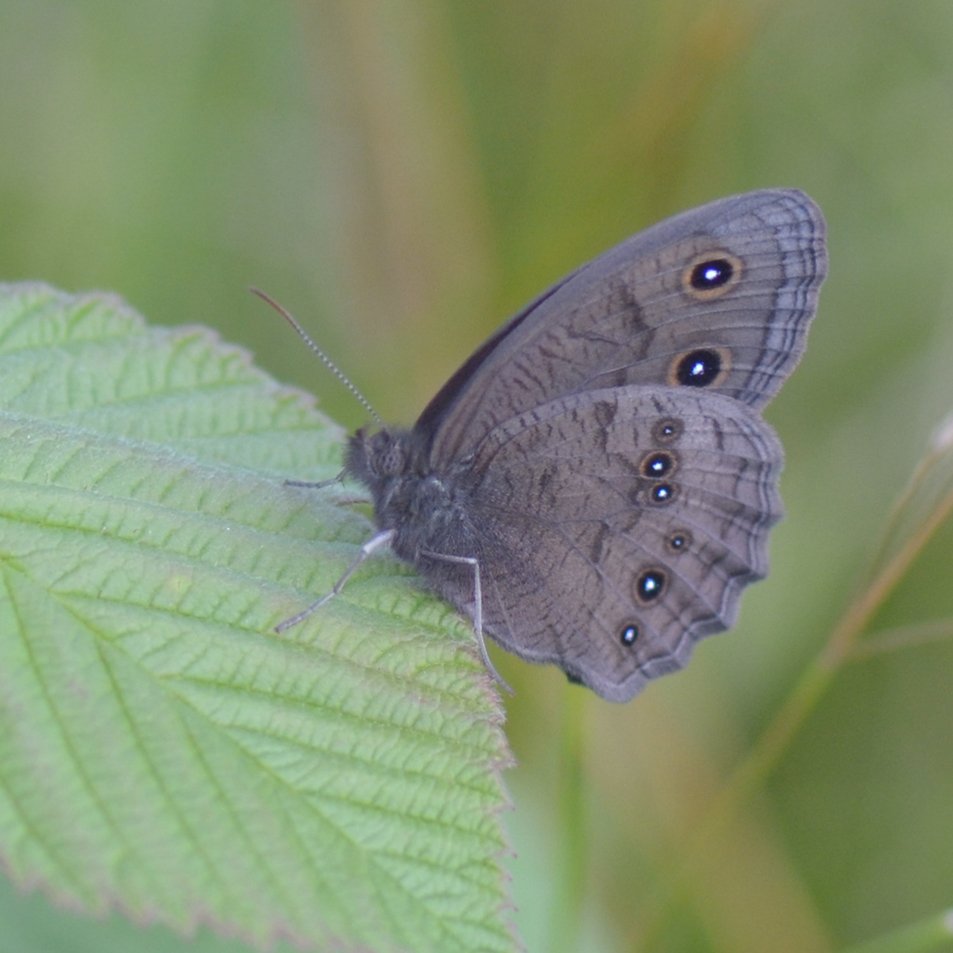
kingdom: Animalia
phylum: Arthropoda
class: Insecta
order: Lepidoptera
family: Nymphalidae
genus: Cercyonis
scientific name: Cercyonis pegala
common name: Common Wood-Nymph
